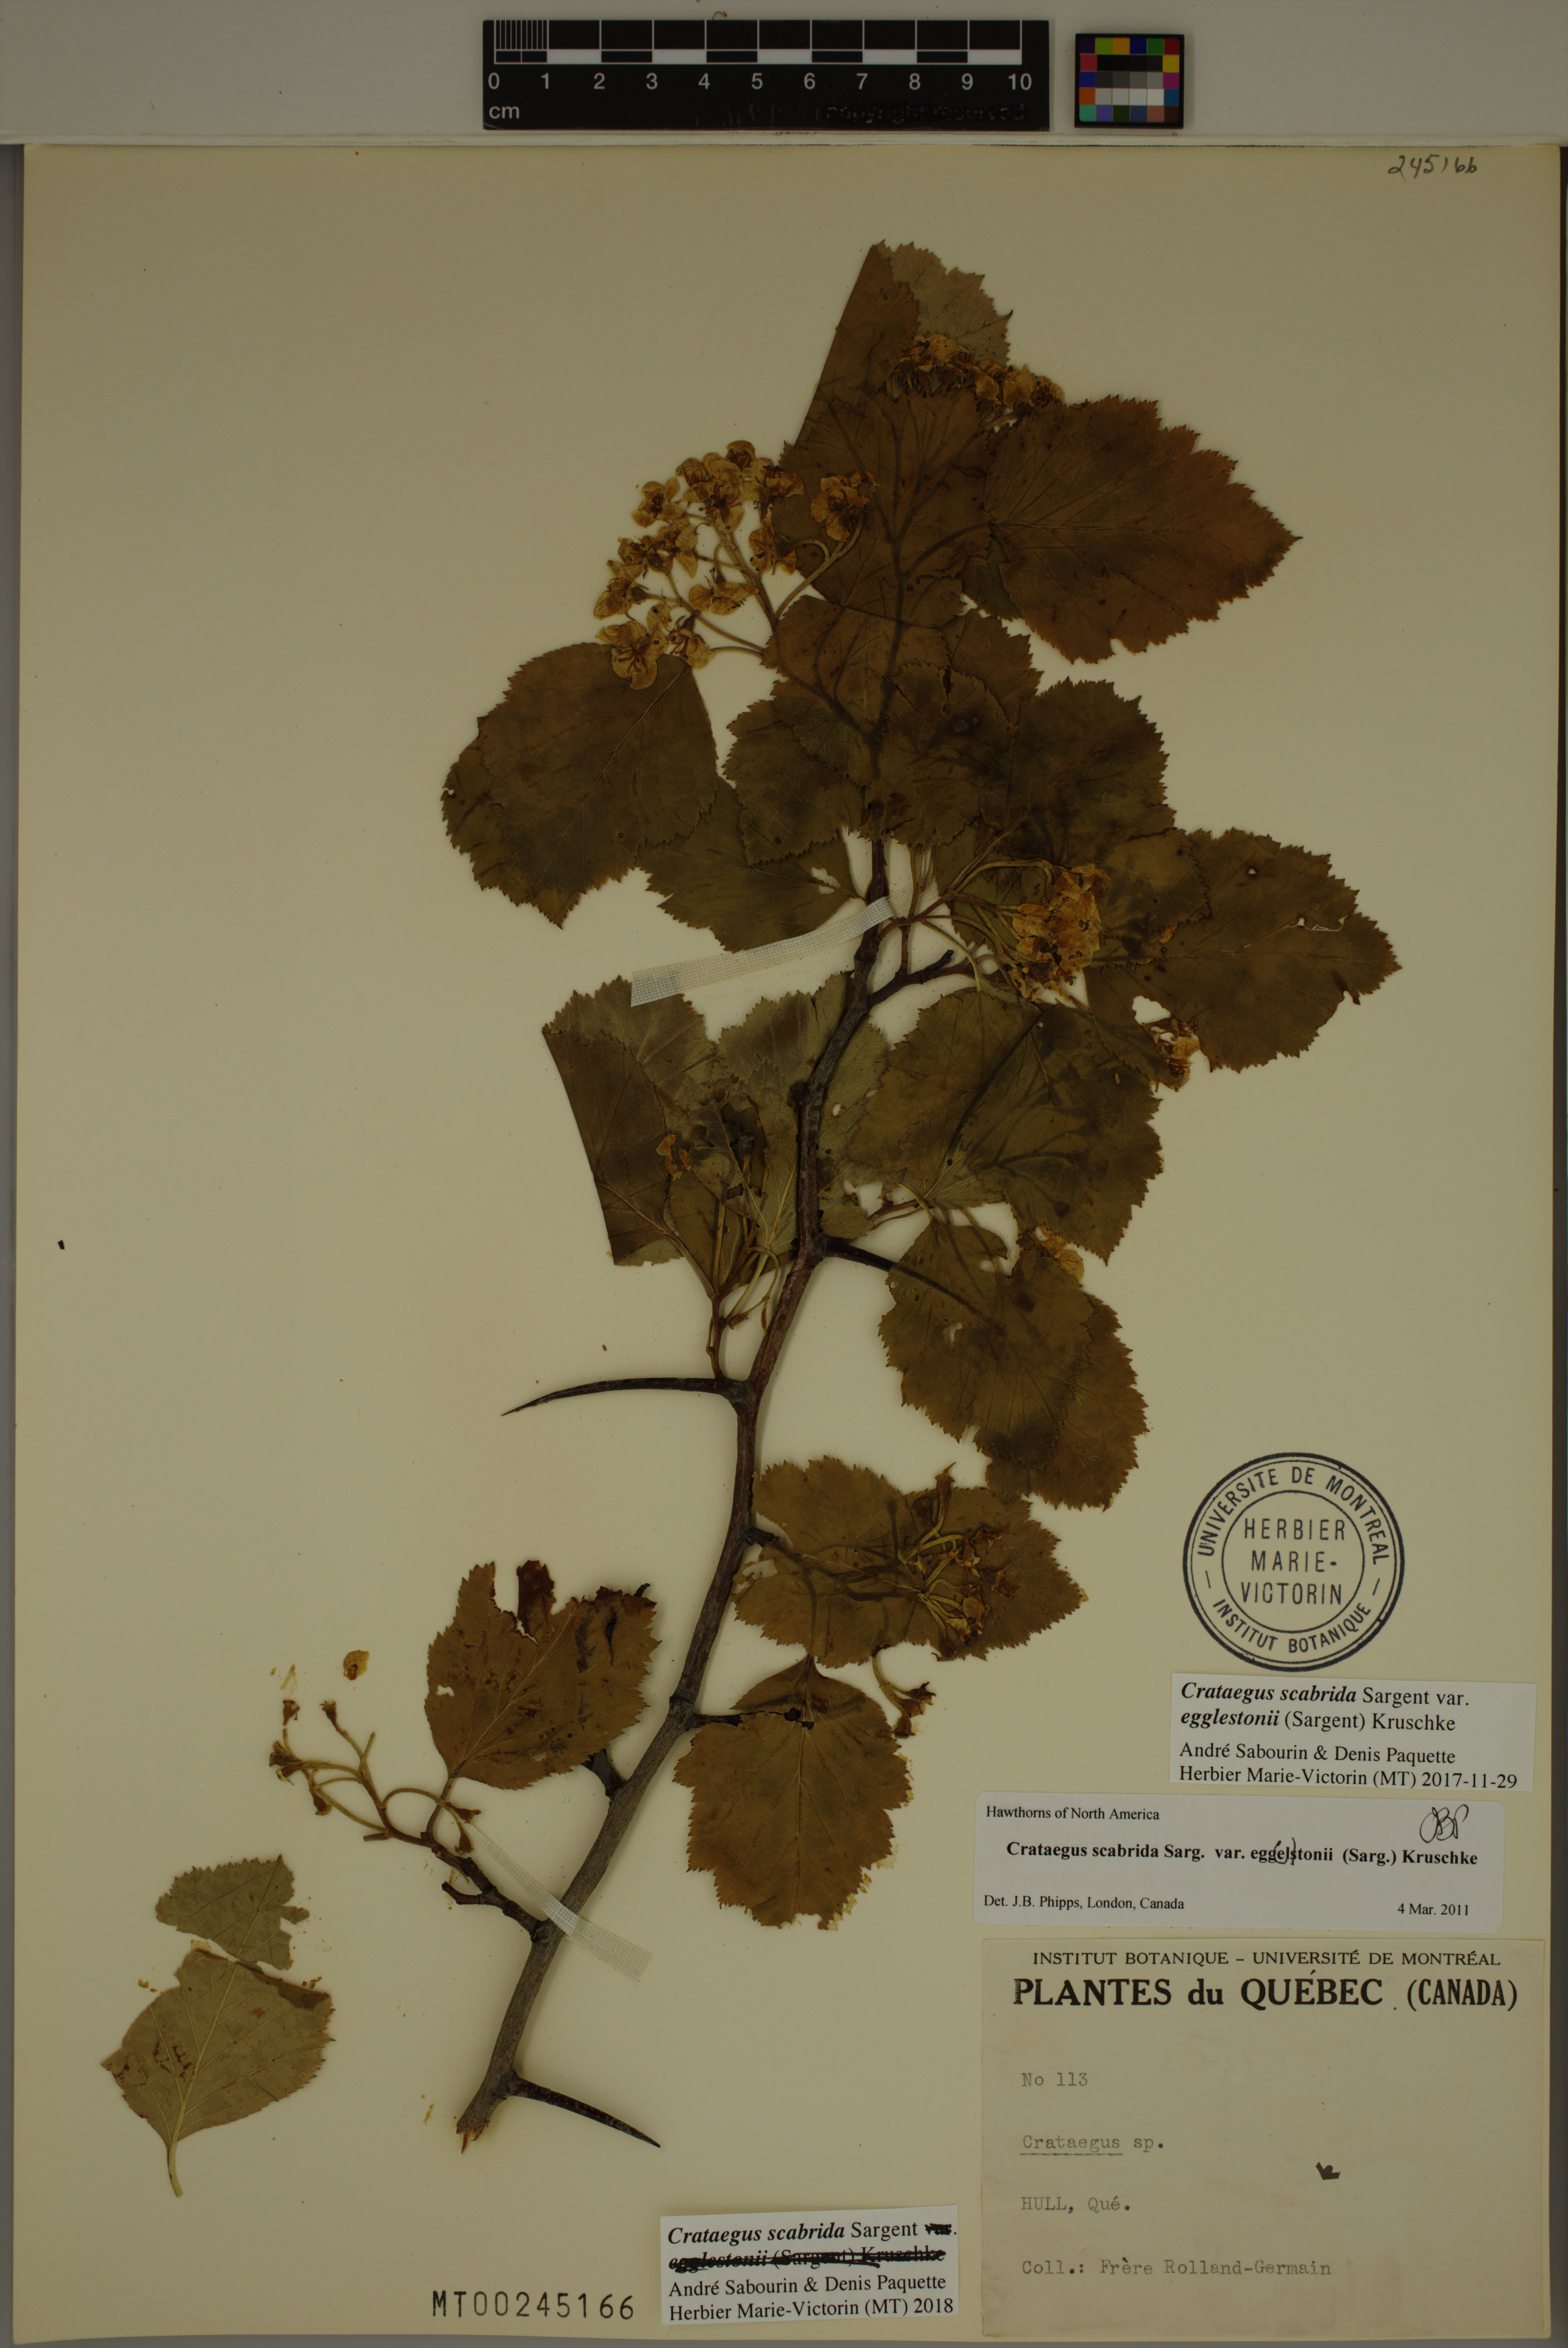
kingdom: Plantae
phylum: Tracheophyta
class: Magnoliopsida
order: Rosales
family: Rosaceae
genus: Crataegus
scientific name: Crataegus scabrida
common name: Rough hawthorn
